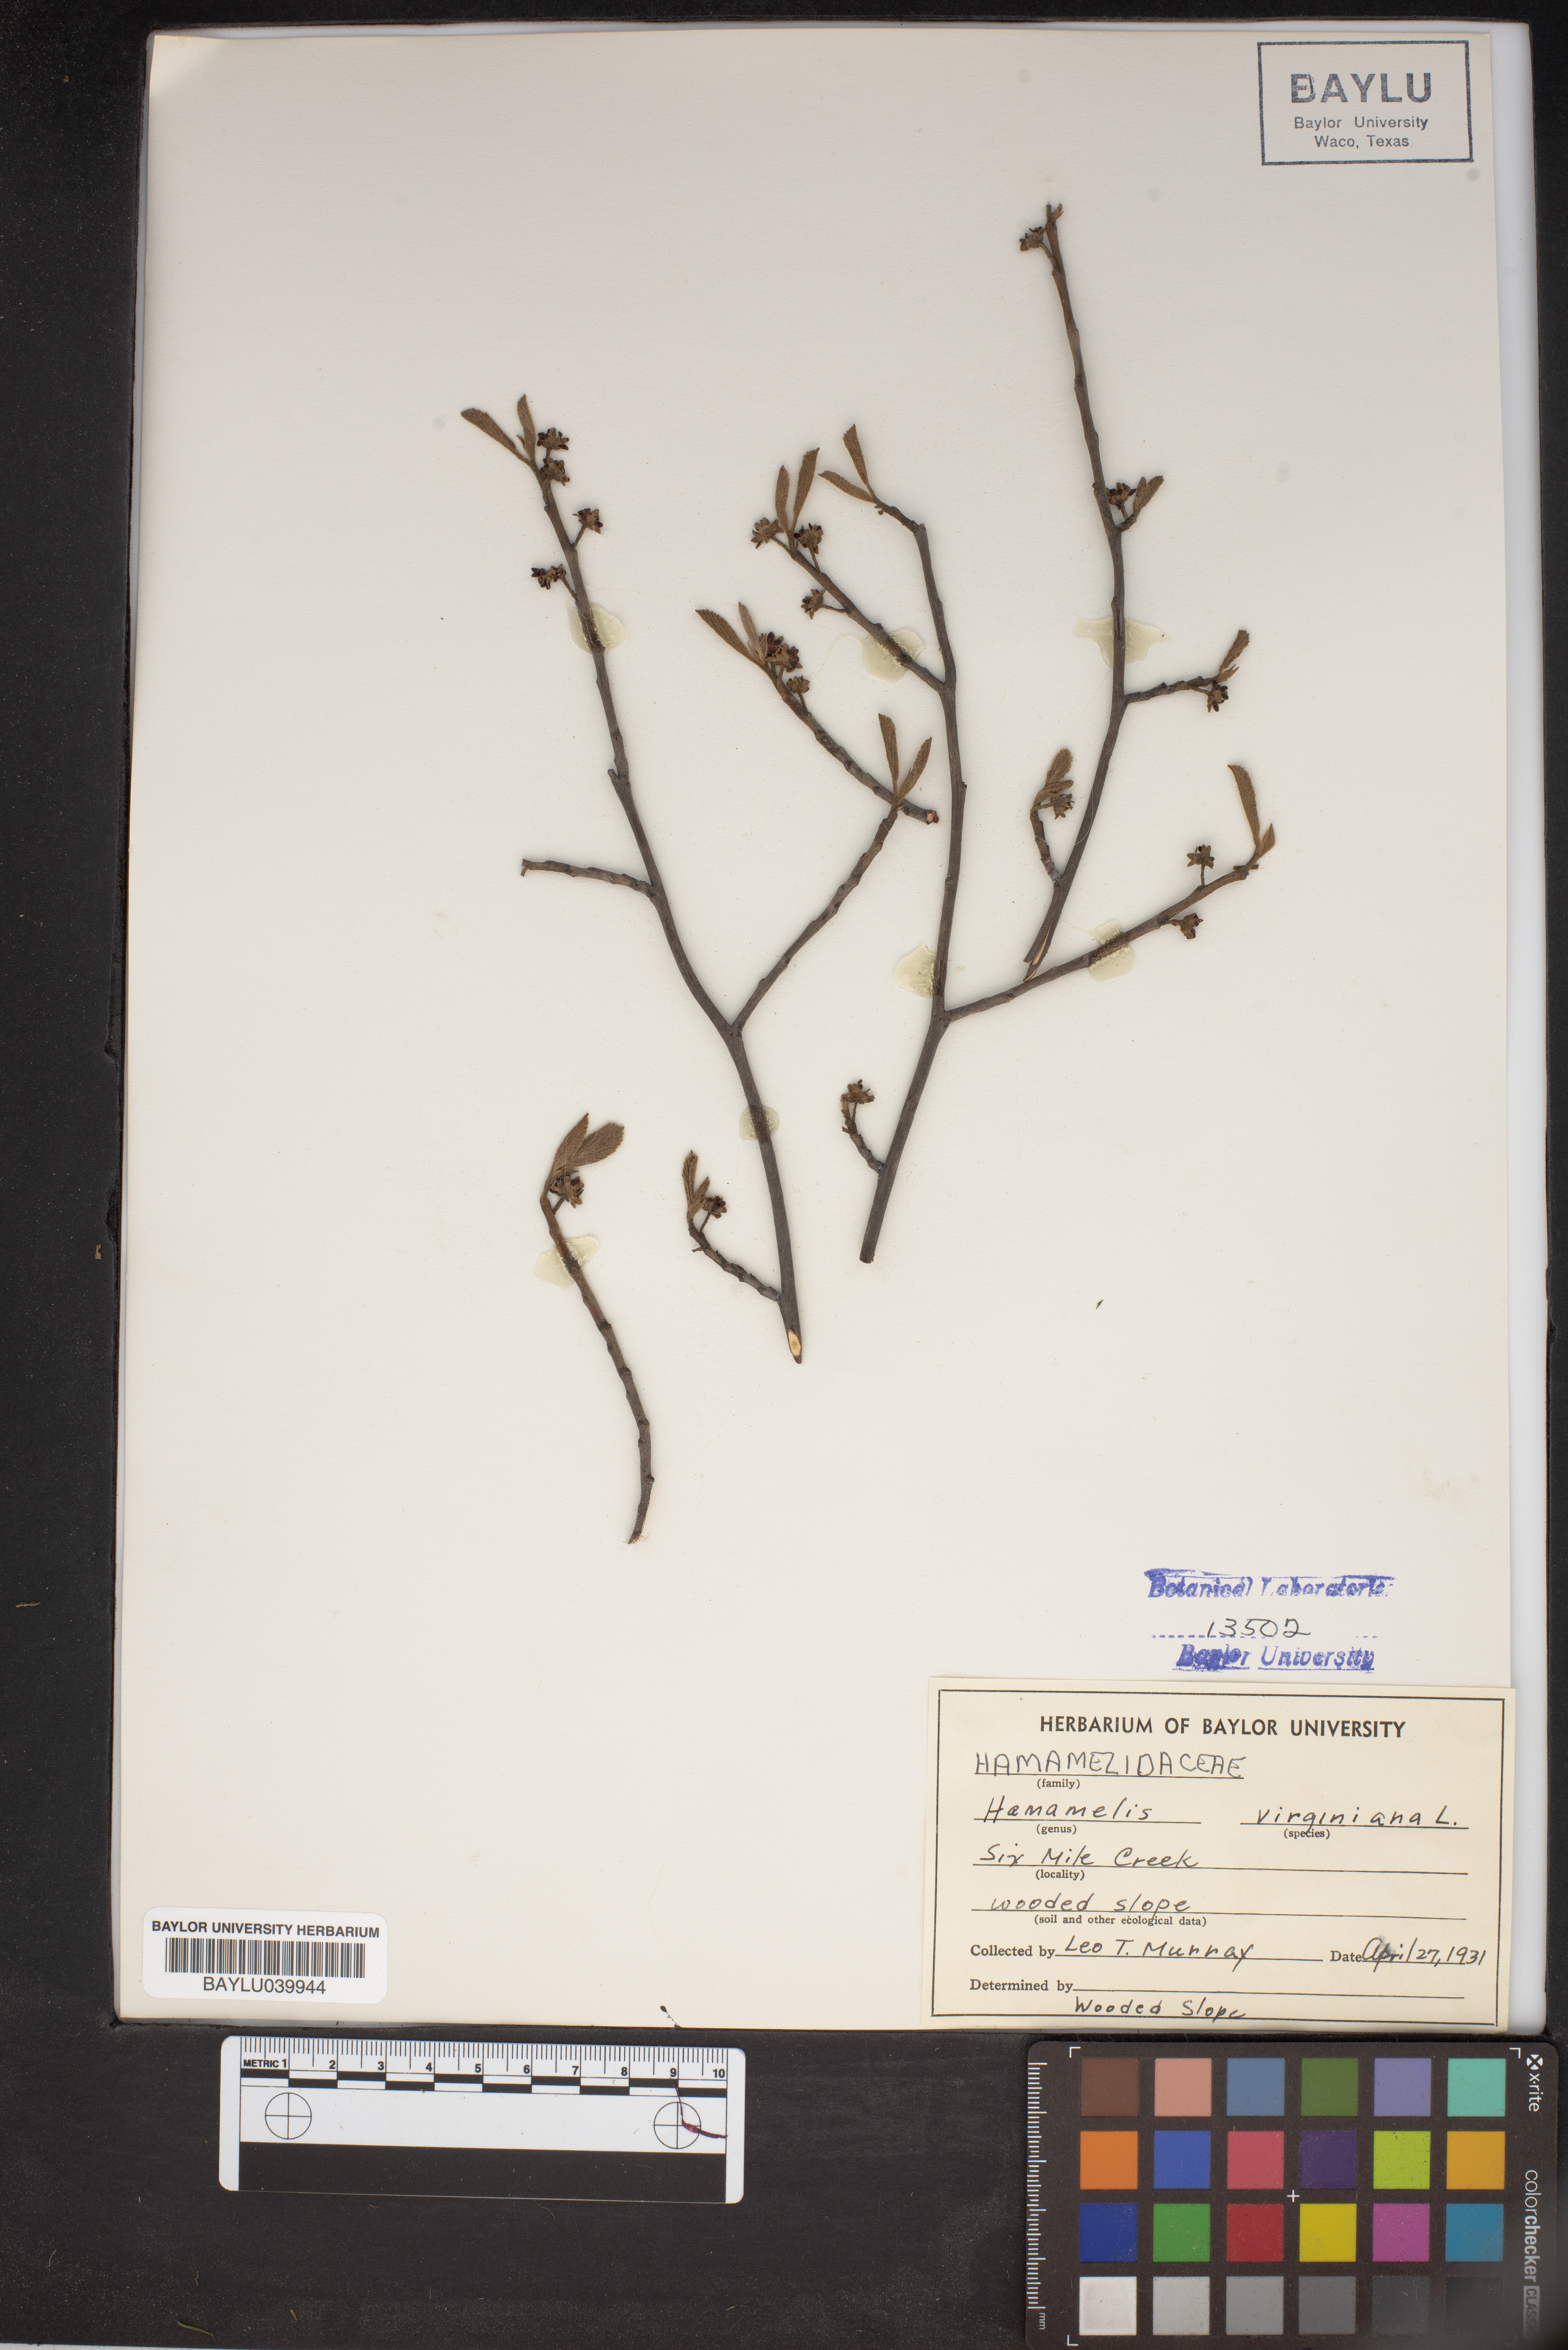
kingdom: Plantae
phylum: Tracheophyta
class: Magnoliopsida
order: Saxifragales
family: Hamamelidaceae
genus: Hamamelis
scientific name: Hamamelis virginiana
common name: Witch-hazel
